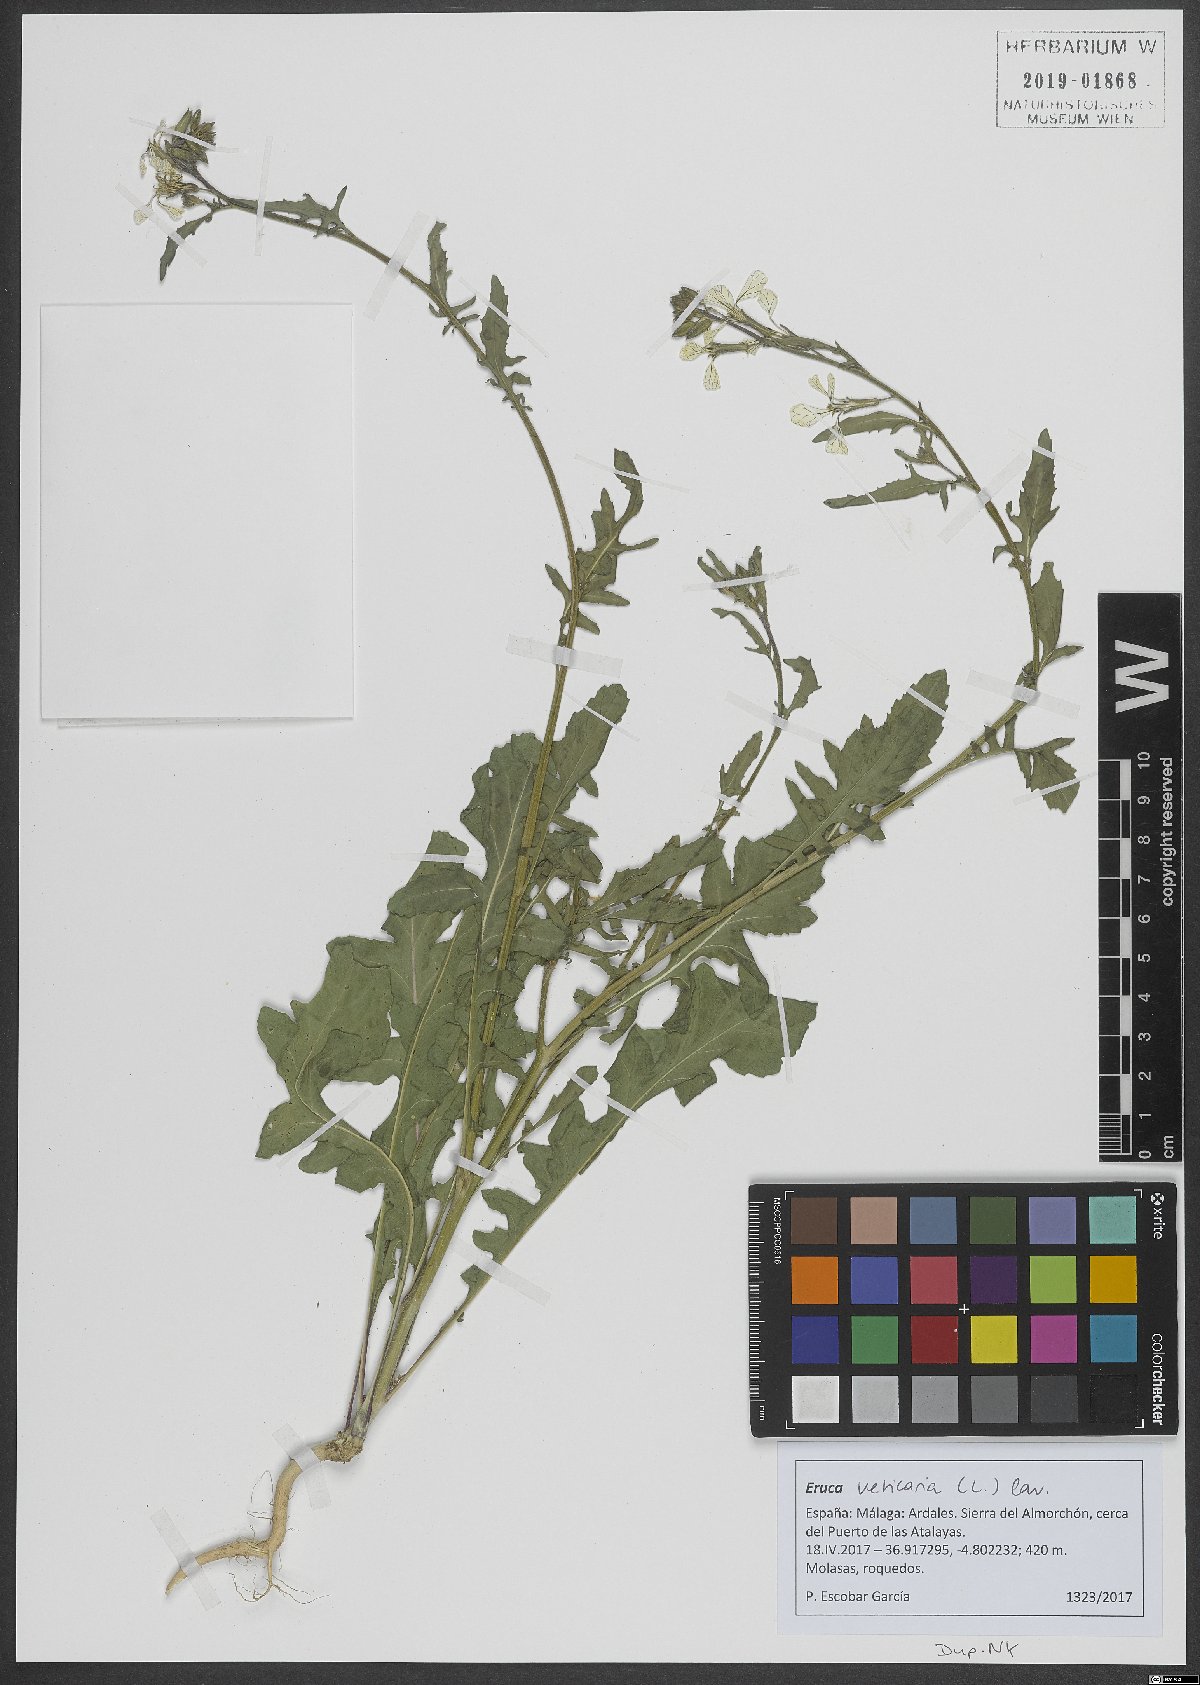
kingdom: Plantae
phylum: Tracheophyta
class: Magnoliopsida
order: Brassicales
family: Brassicaceae
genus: Eruca
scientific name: Eruca vesicaria
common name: Garden rocket
